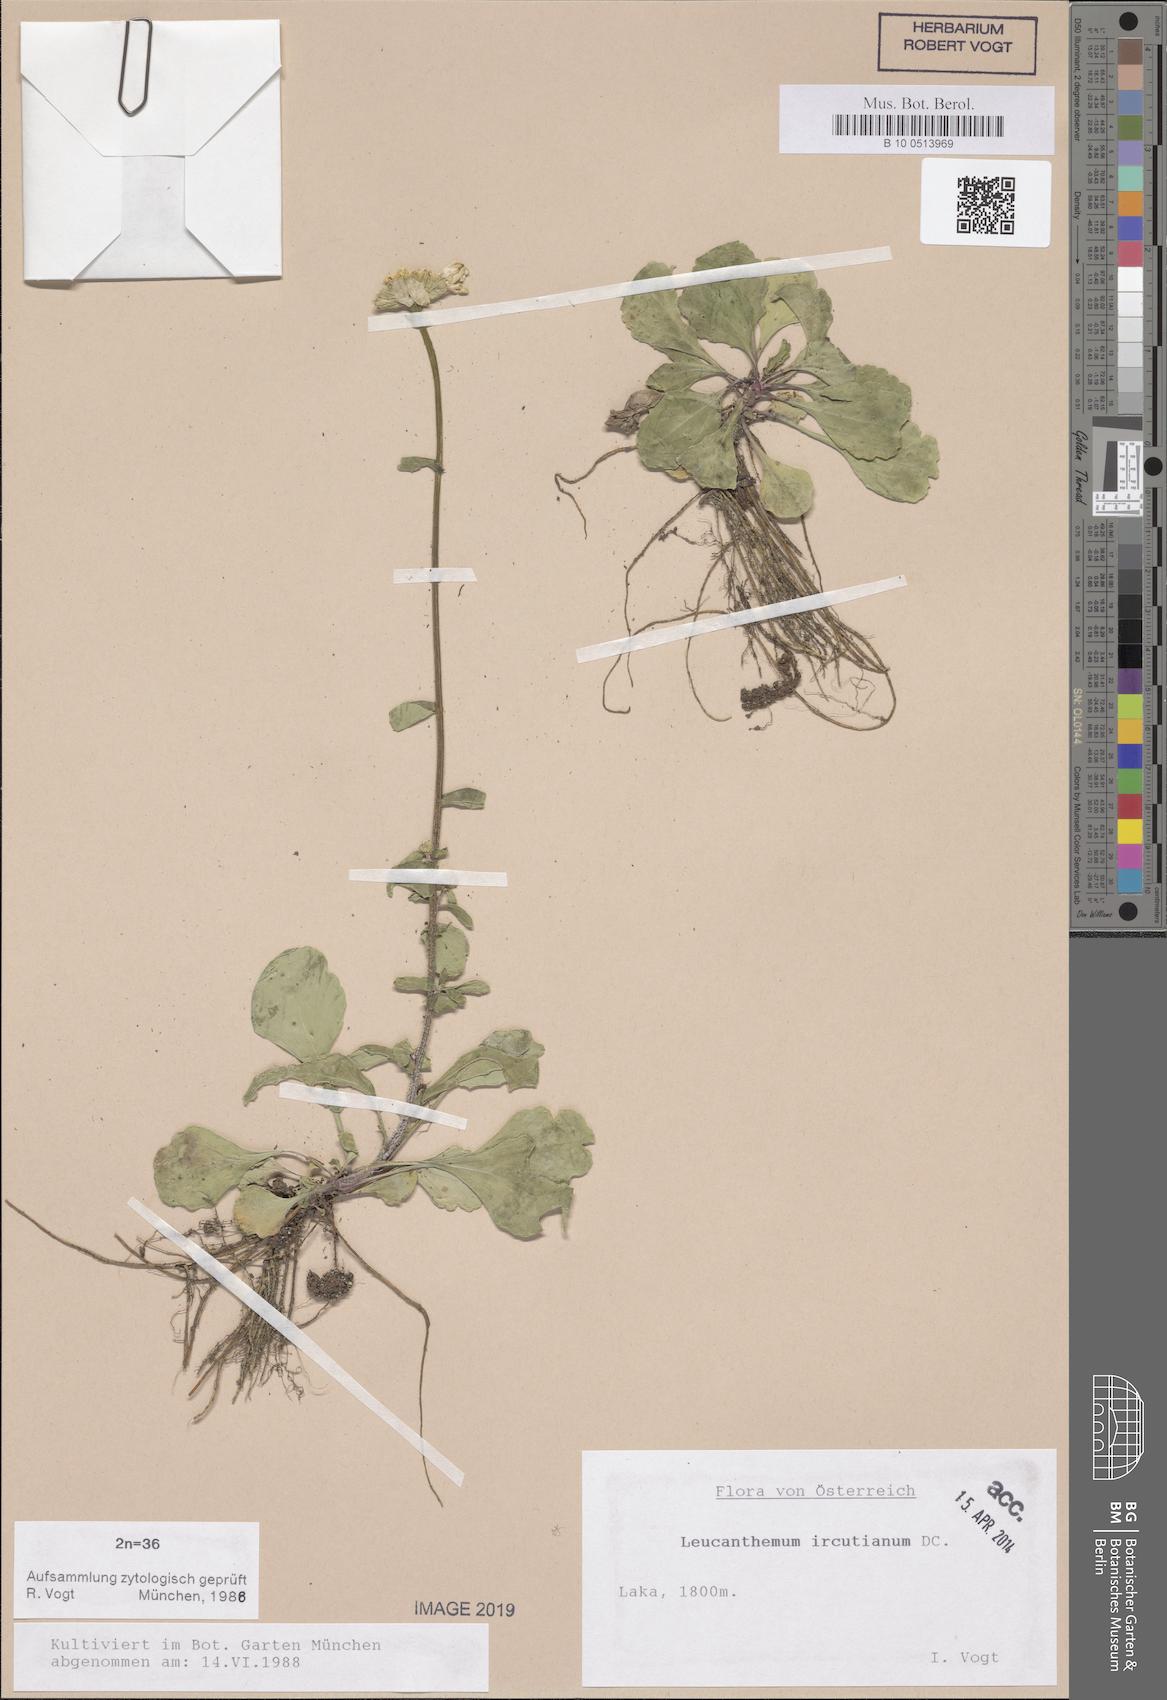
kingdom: Plantae
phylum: Tracheophyta
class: Magnoliopsida
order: Asterales
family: Asteraceae
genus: Leucanthemum
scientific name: Leucanthemum ircutianum
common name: Daisy
